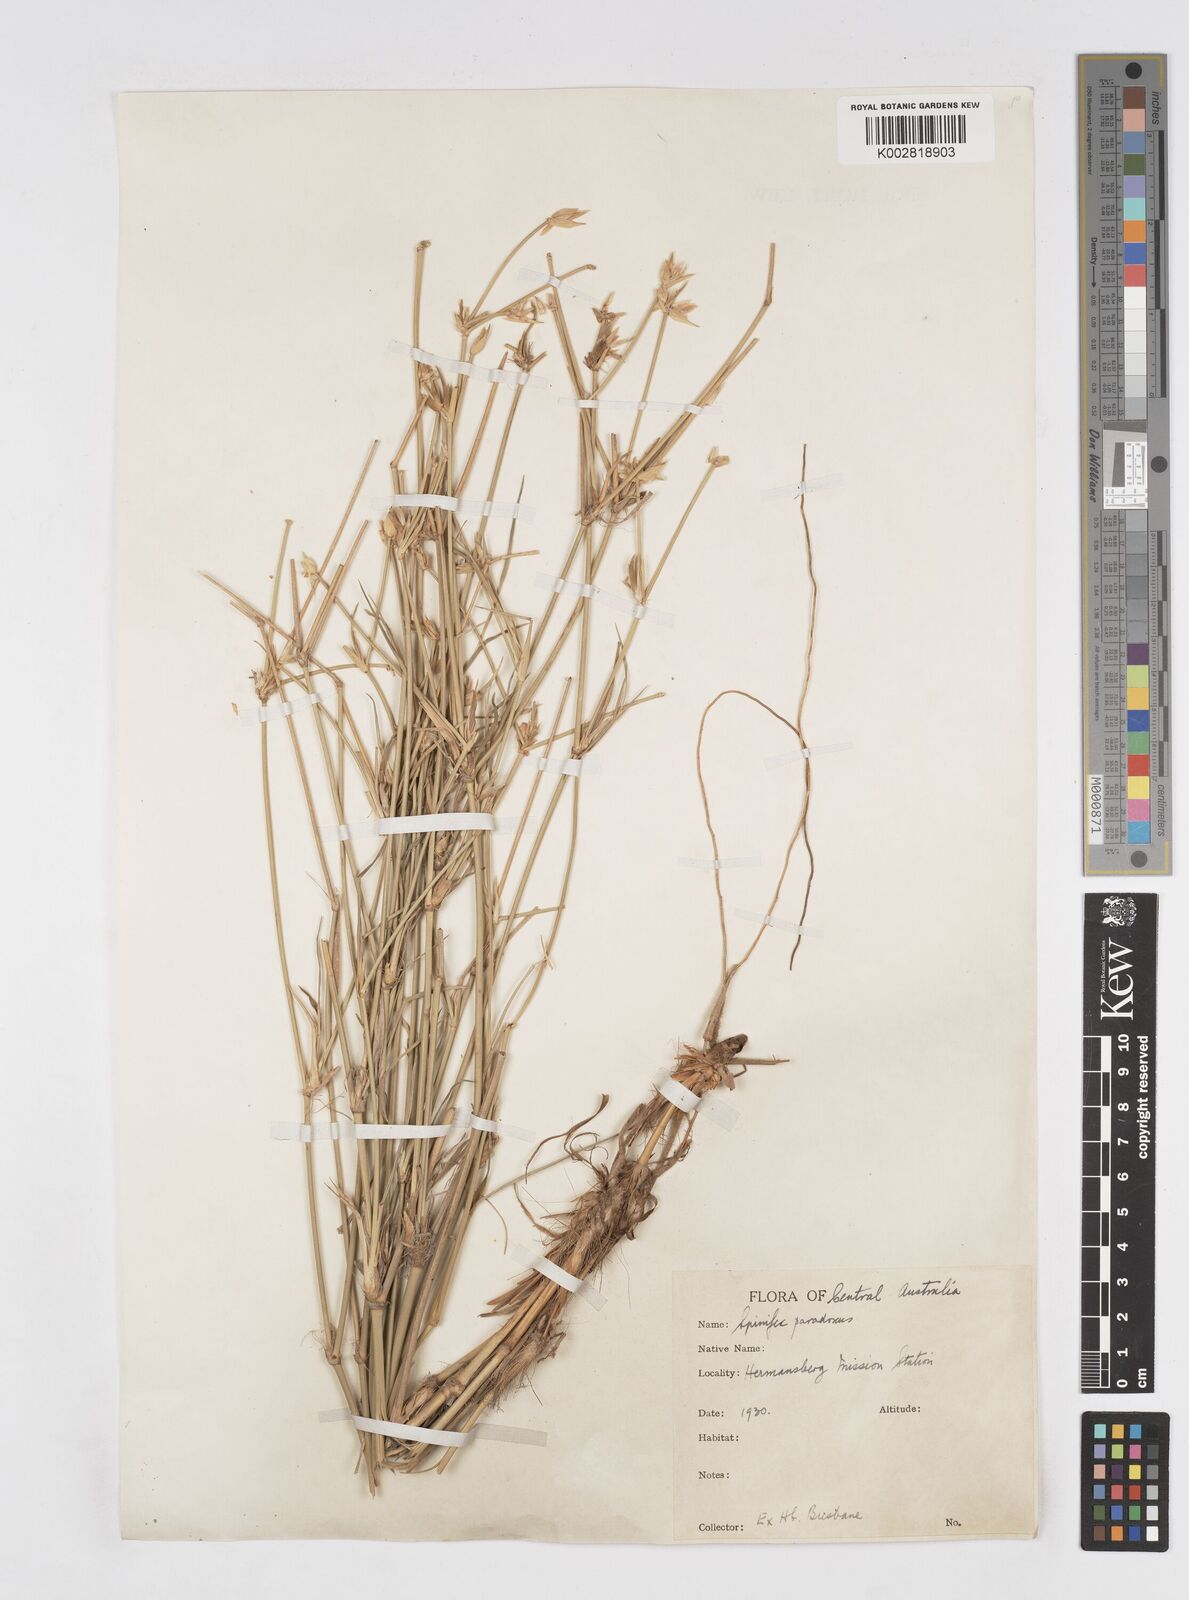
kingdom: Plantae
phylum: Tracheophyta
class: Liliopsida
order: Poales
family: Poaceae
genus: Zygochloa
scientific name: Zygochloa paradoxa
